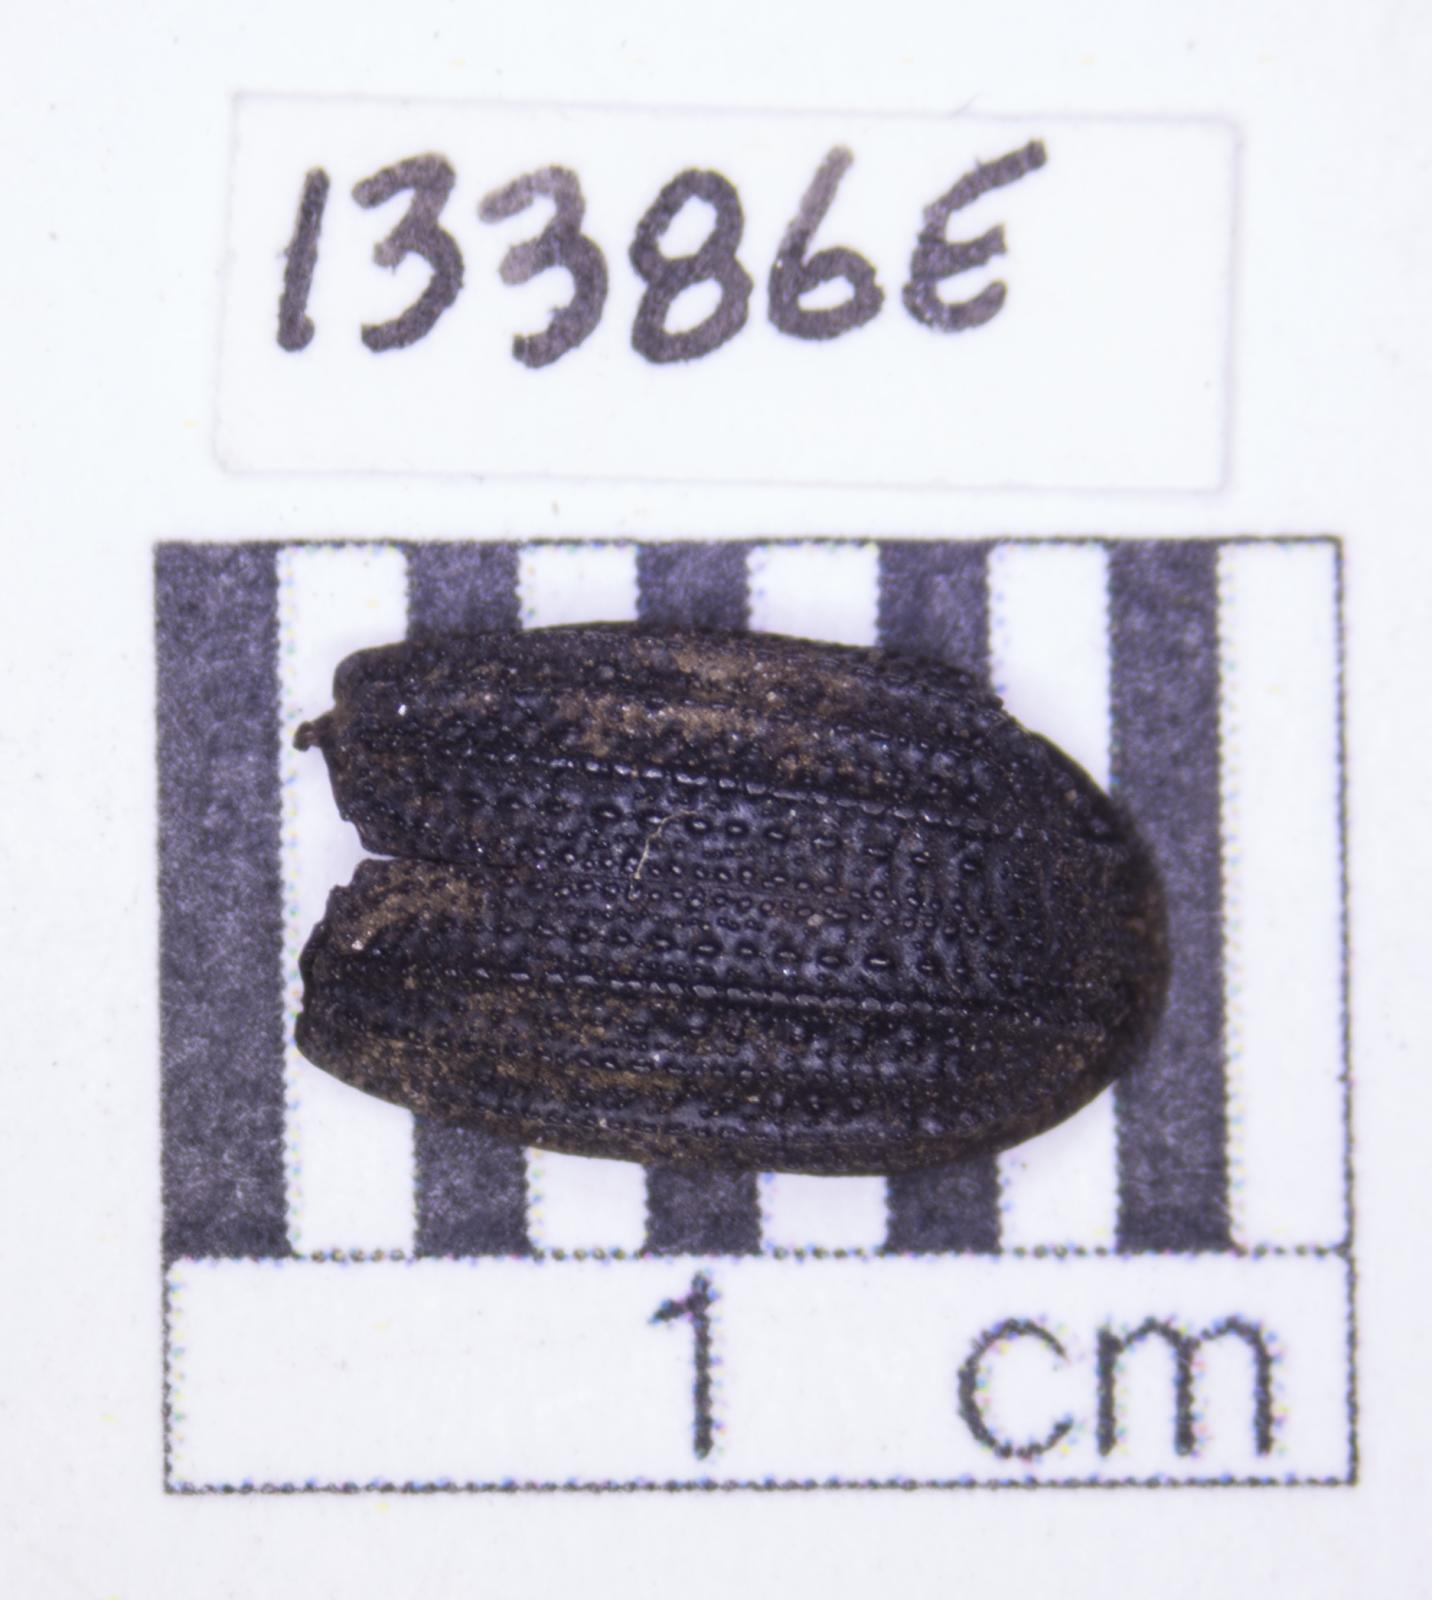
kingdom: Animalia
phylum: Arthropoda
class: Insecta
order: Coleoptera
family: Tenebrionidae
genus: Nyctoporis
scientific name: Nyctoporis carinata
